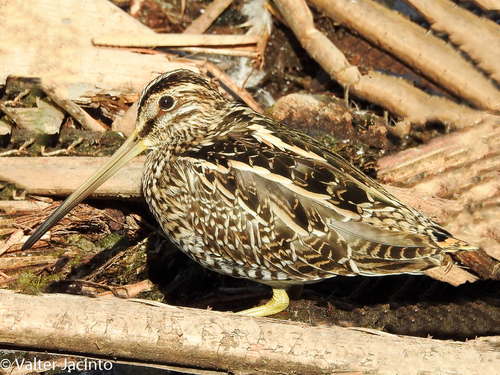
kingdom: Animalia
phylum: Chordata
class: Aves
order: Charadriiformes
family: Scolopacidae
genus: Gallinago
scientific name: Gallinago gallinago
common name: Common snipe
